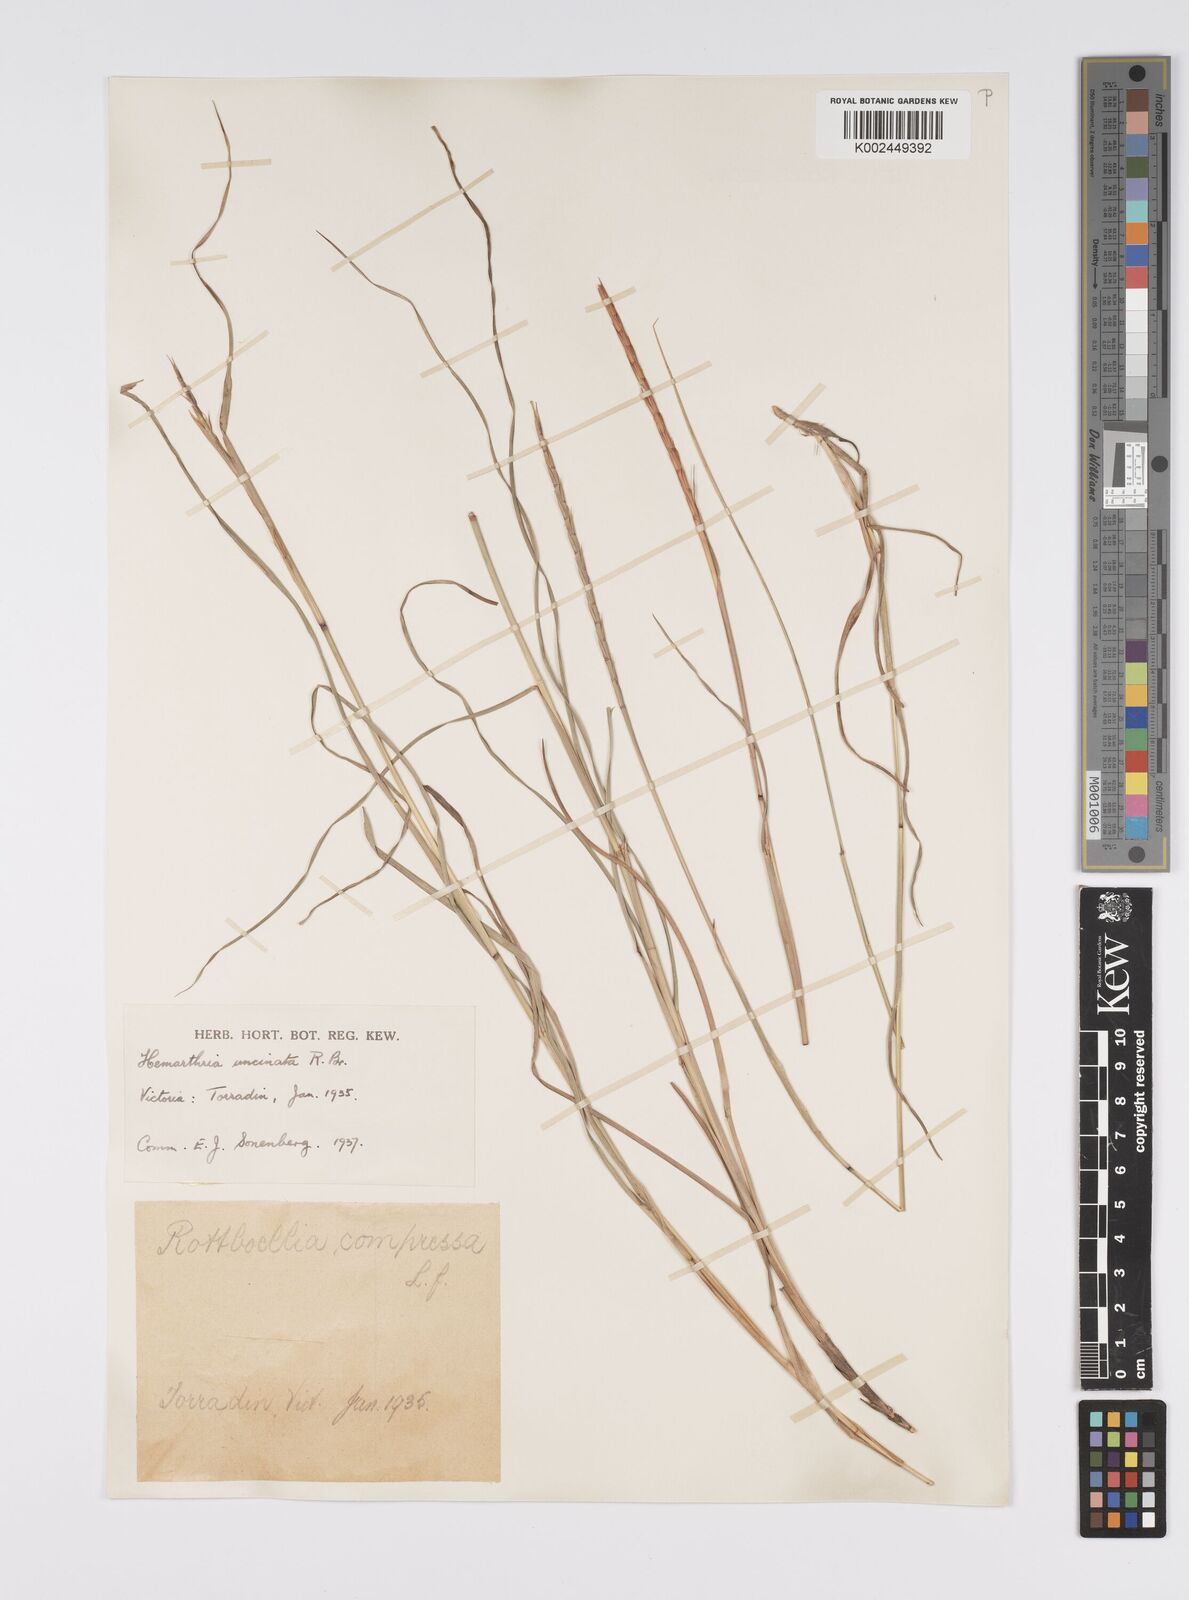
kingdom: Plantae
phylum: Tracheophyta
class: Liliopsida
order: Poales
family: Poaceae
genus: Hemarthria
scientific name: Hemarthria uncinata
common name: Matgrass
